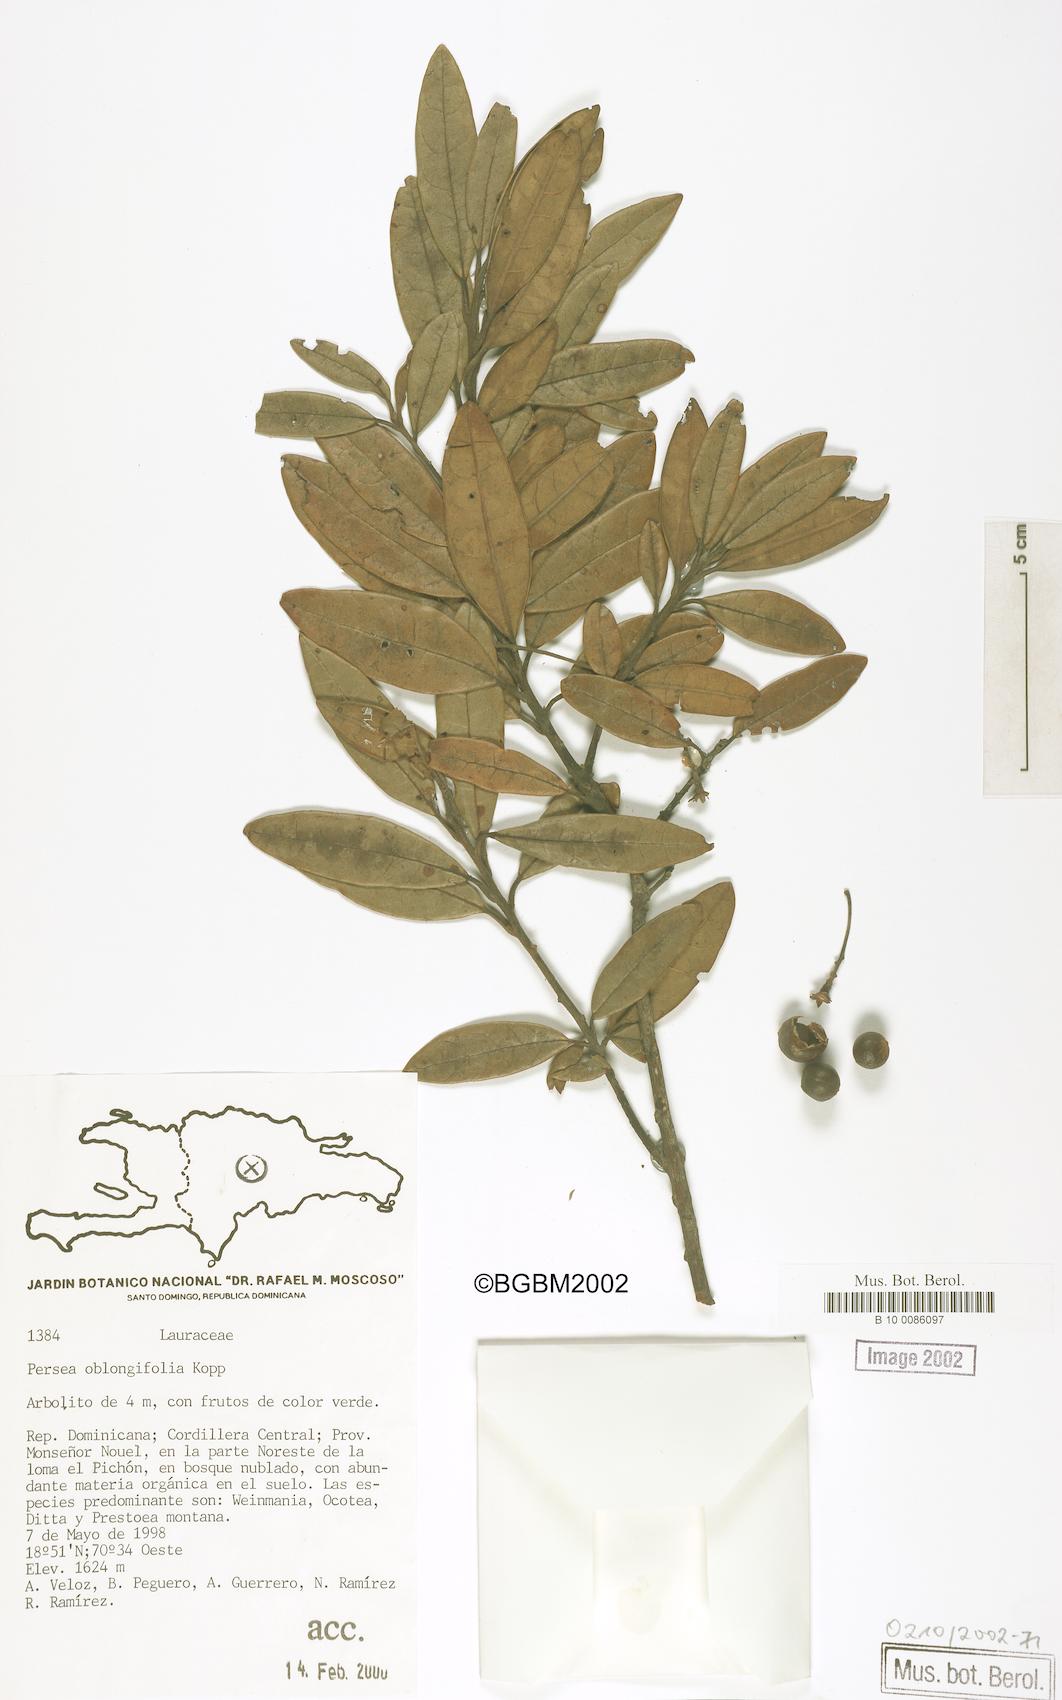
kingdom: Plantae
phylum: Tracheophyta
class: Magnoliopsida
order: Laurales
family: Lauraceae
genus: Persea
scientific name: Persea oblongifolia
